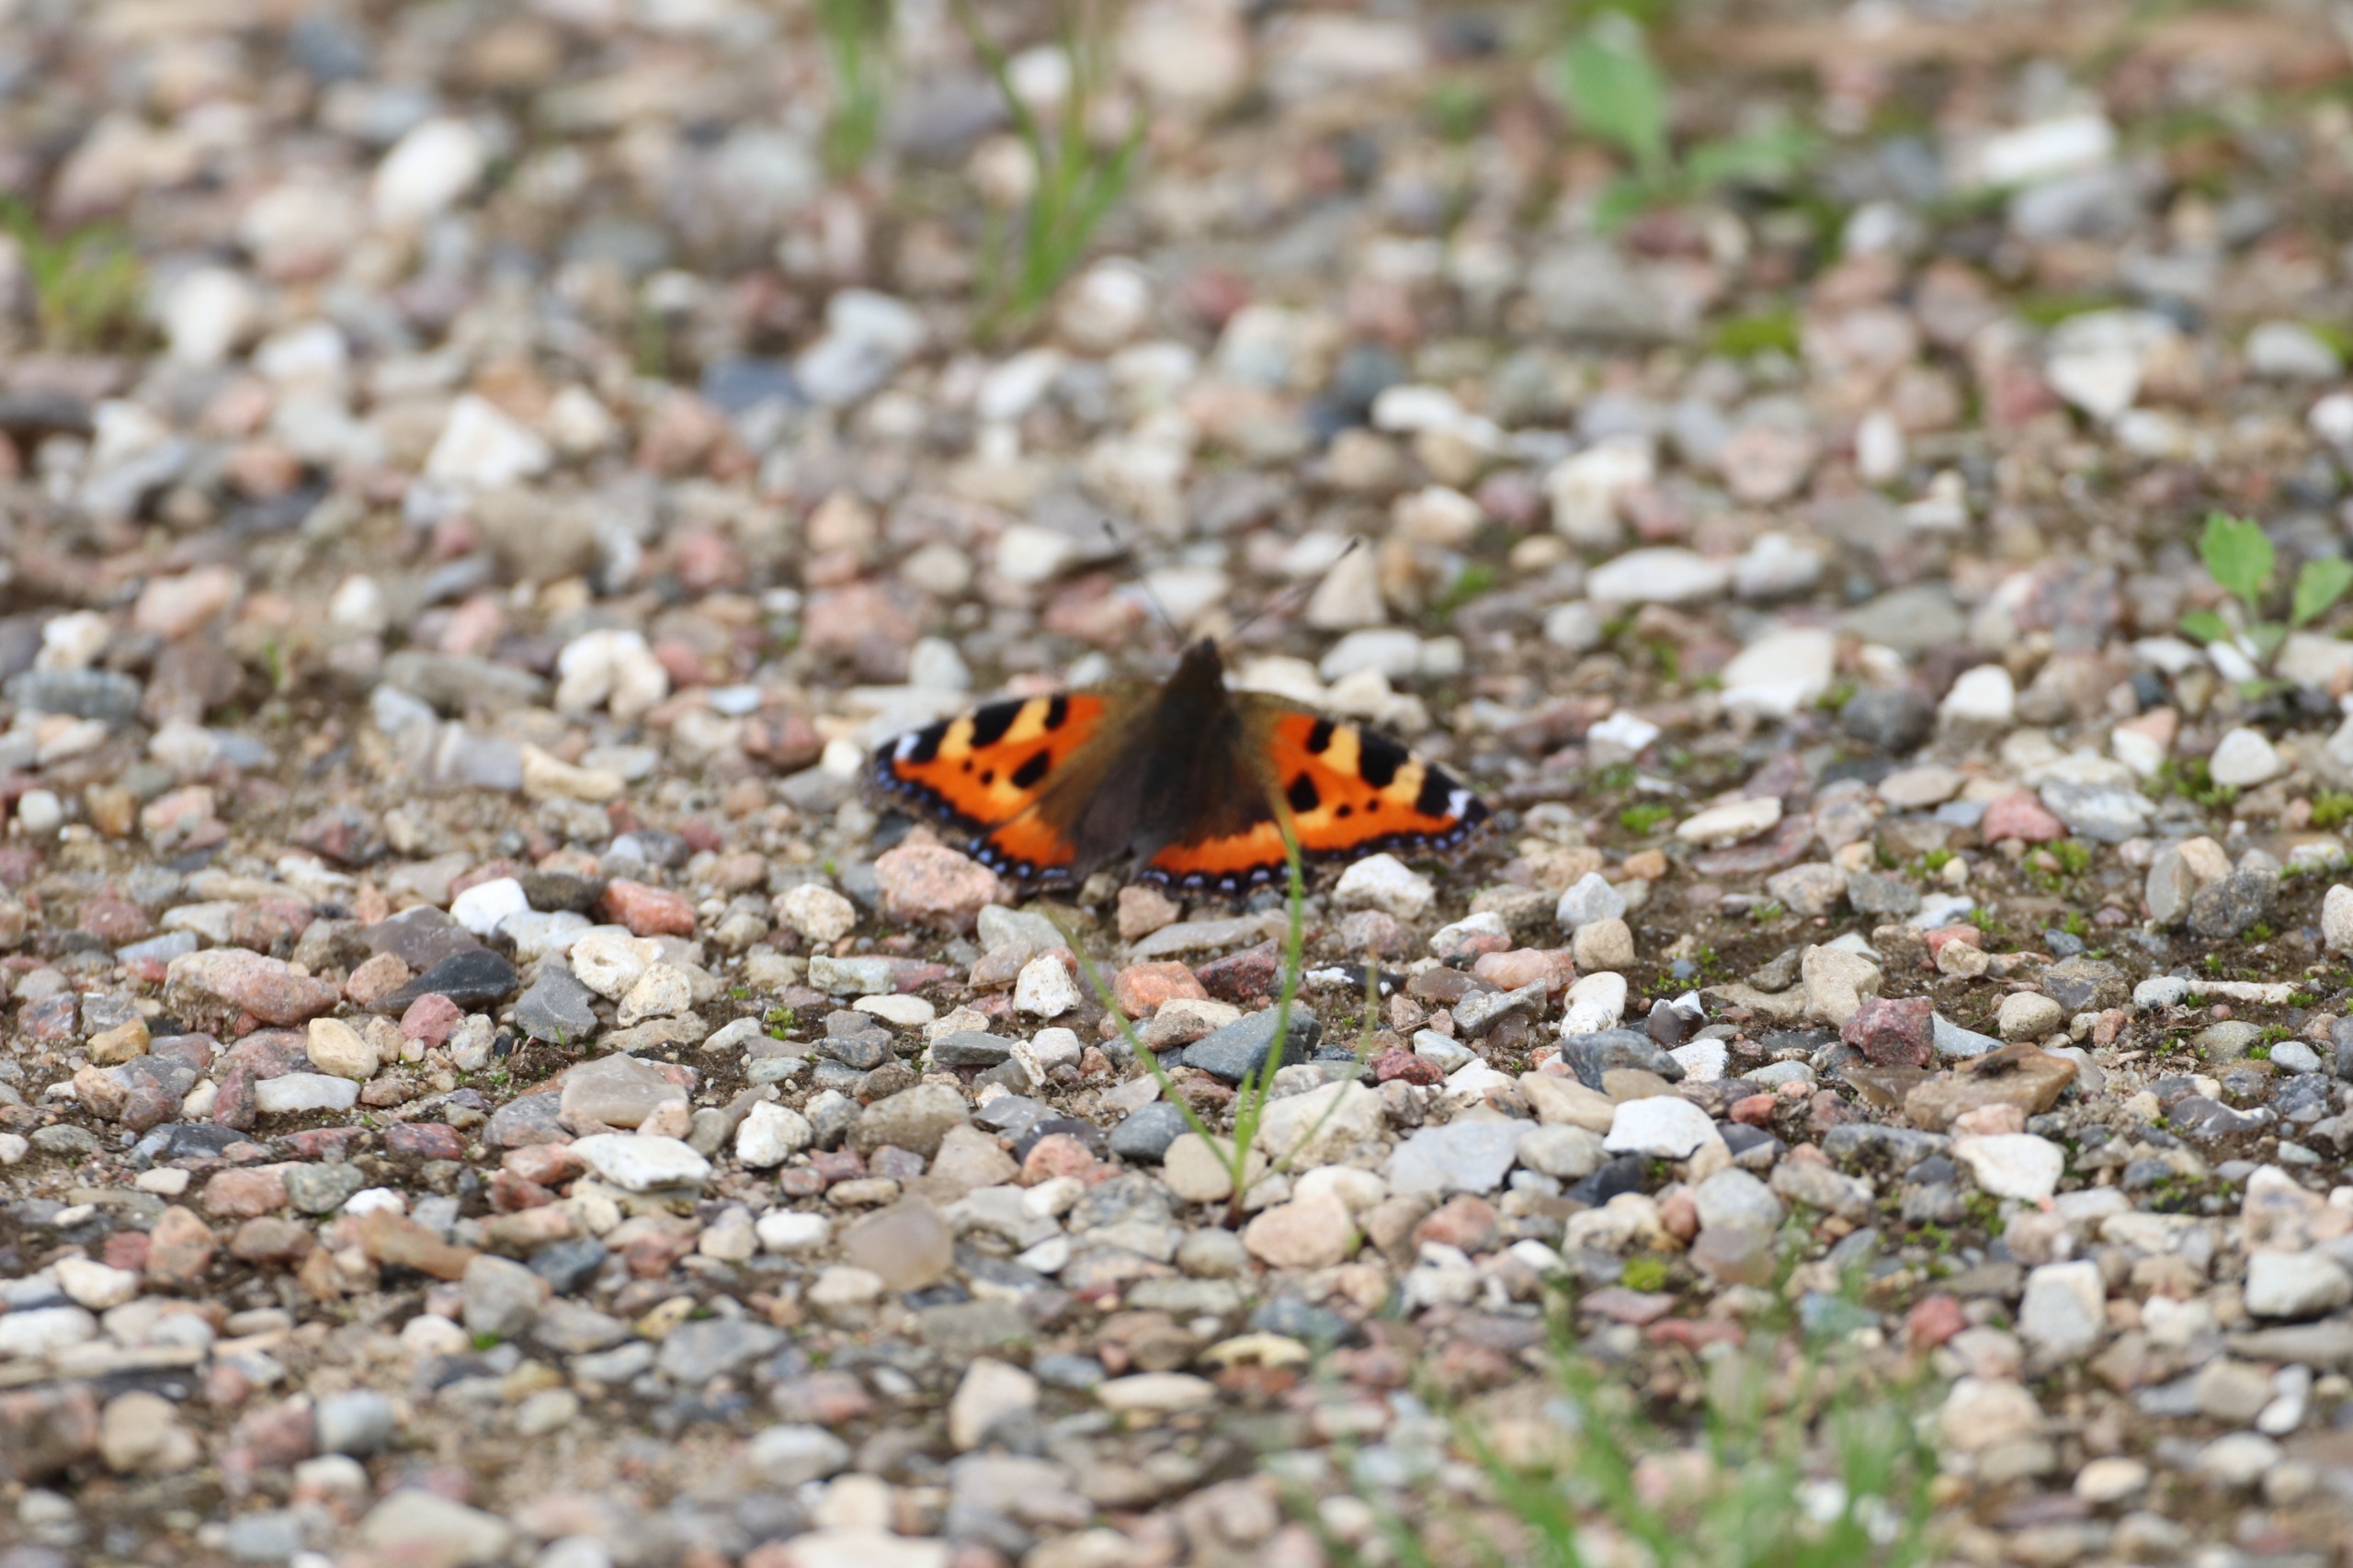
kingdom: Animalia
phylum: Arthropoda
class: Insecta
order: Lepidoptera
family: Nymphalidae
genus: Aglais
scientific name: Aglais urticae
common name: Nældens takvinge
